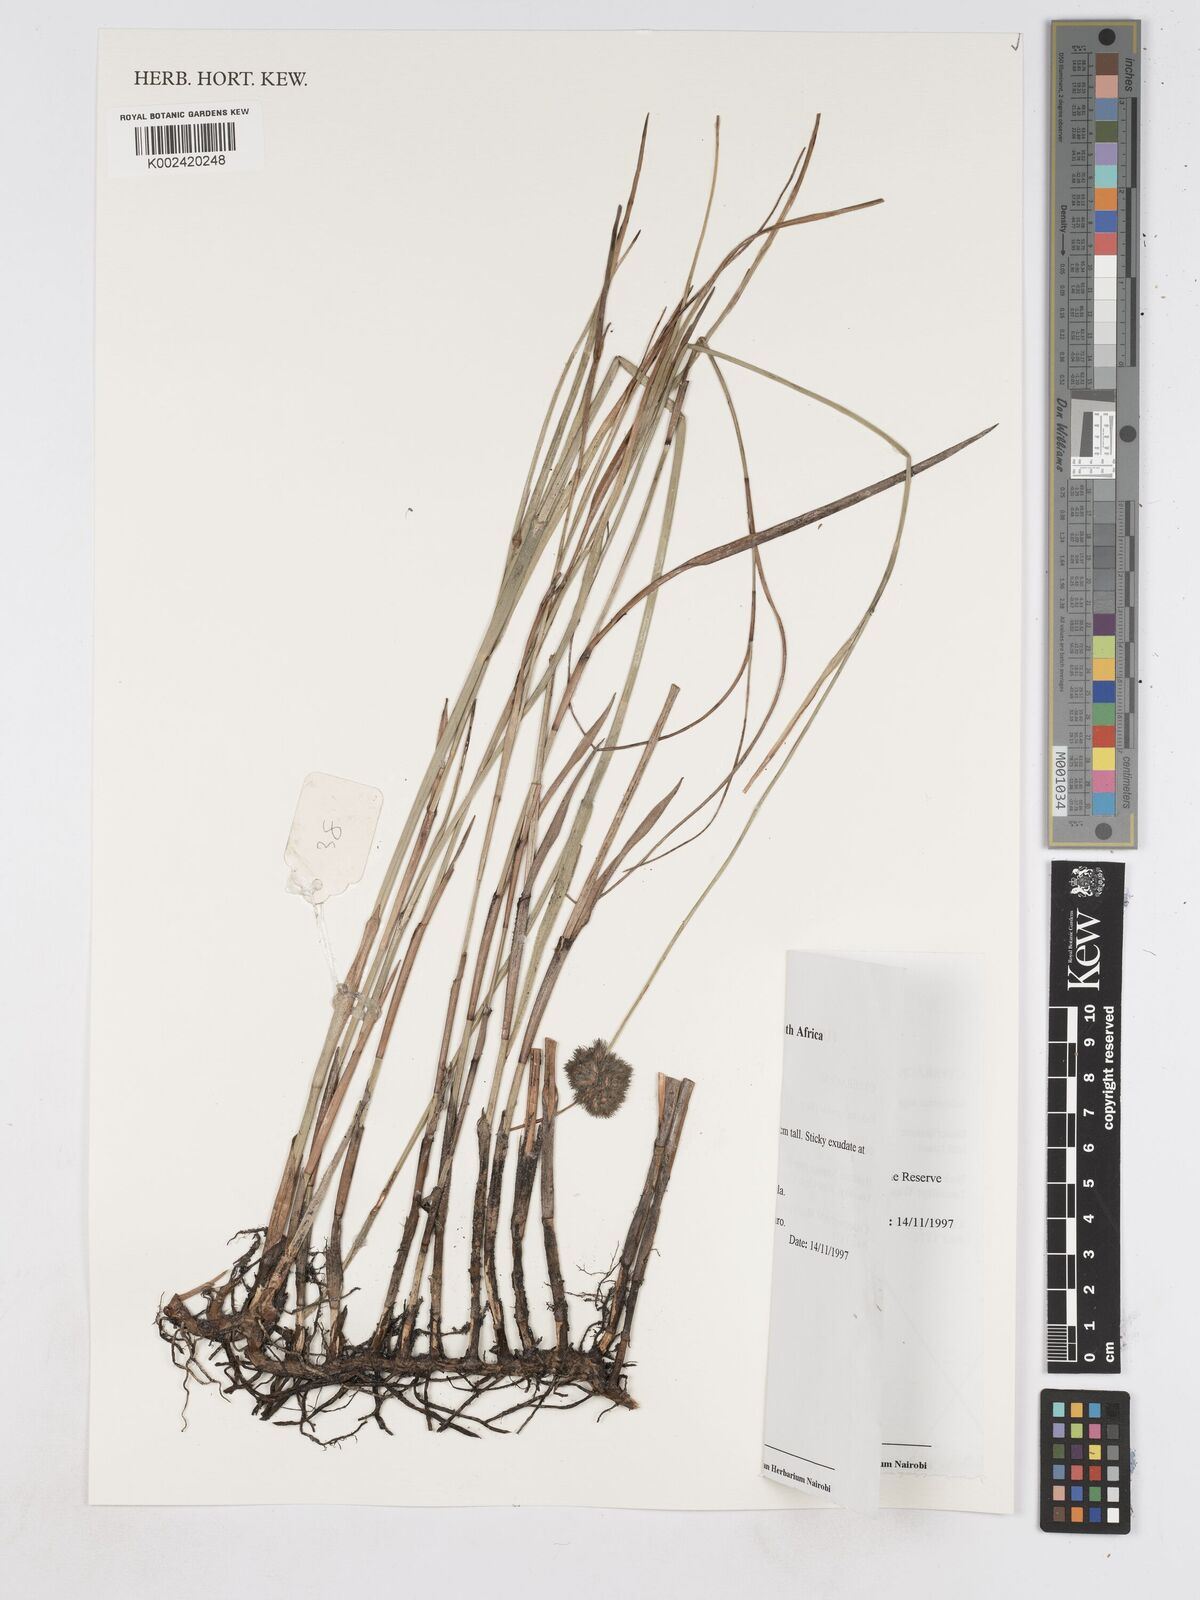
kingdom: Plantae
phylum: Tracheophyta
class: Liliopsida
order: Poales
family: Cyperaceae
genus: Fuirena
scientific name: Fuirena hirsuta
